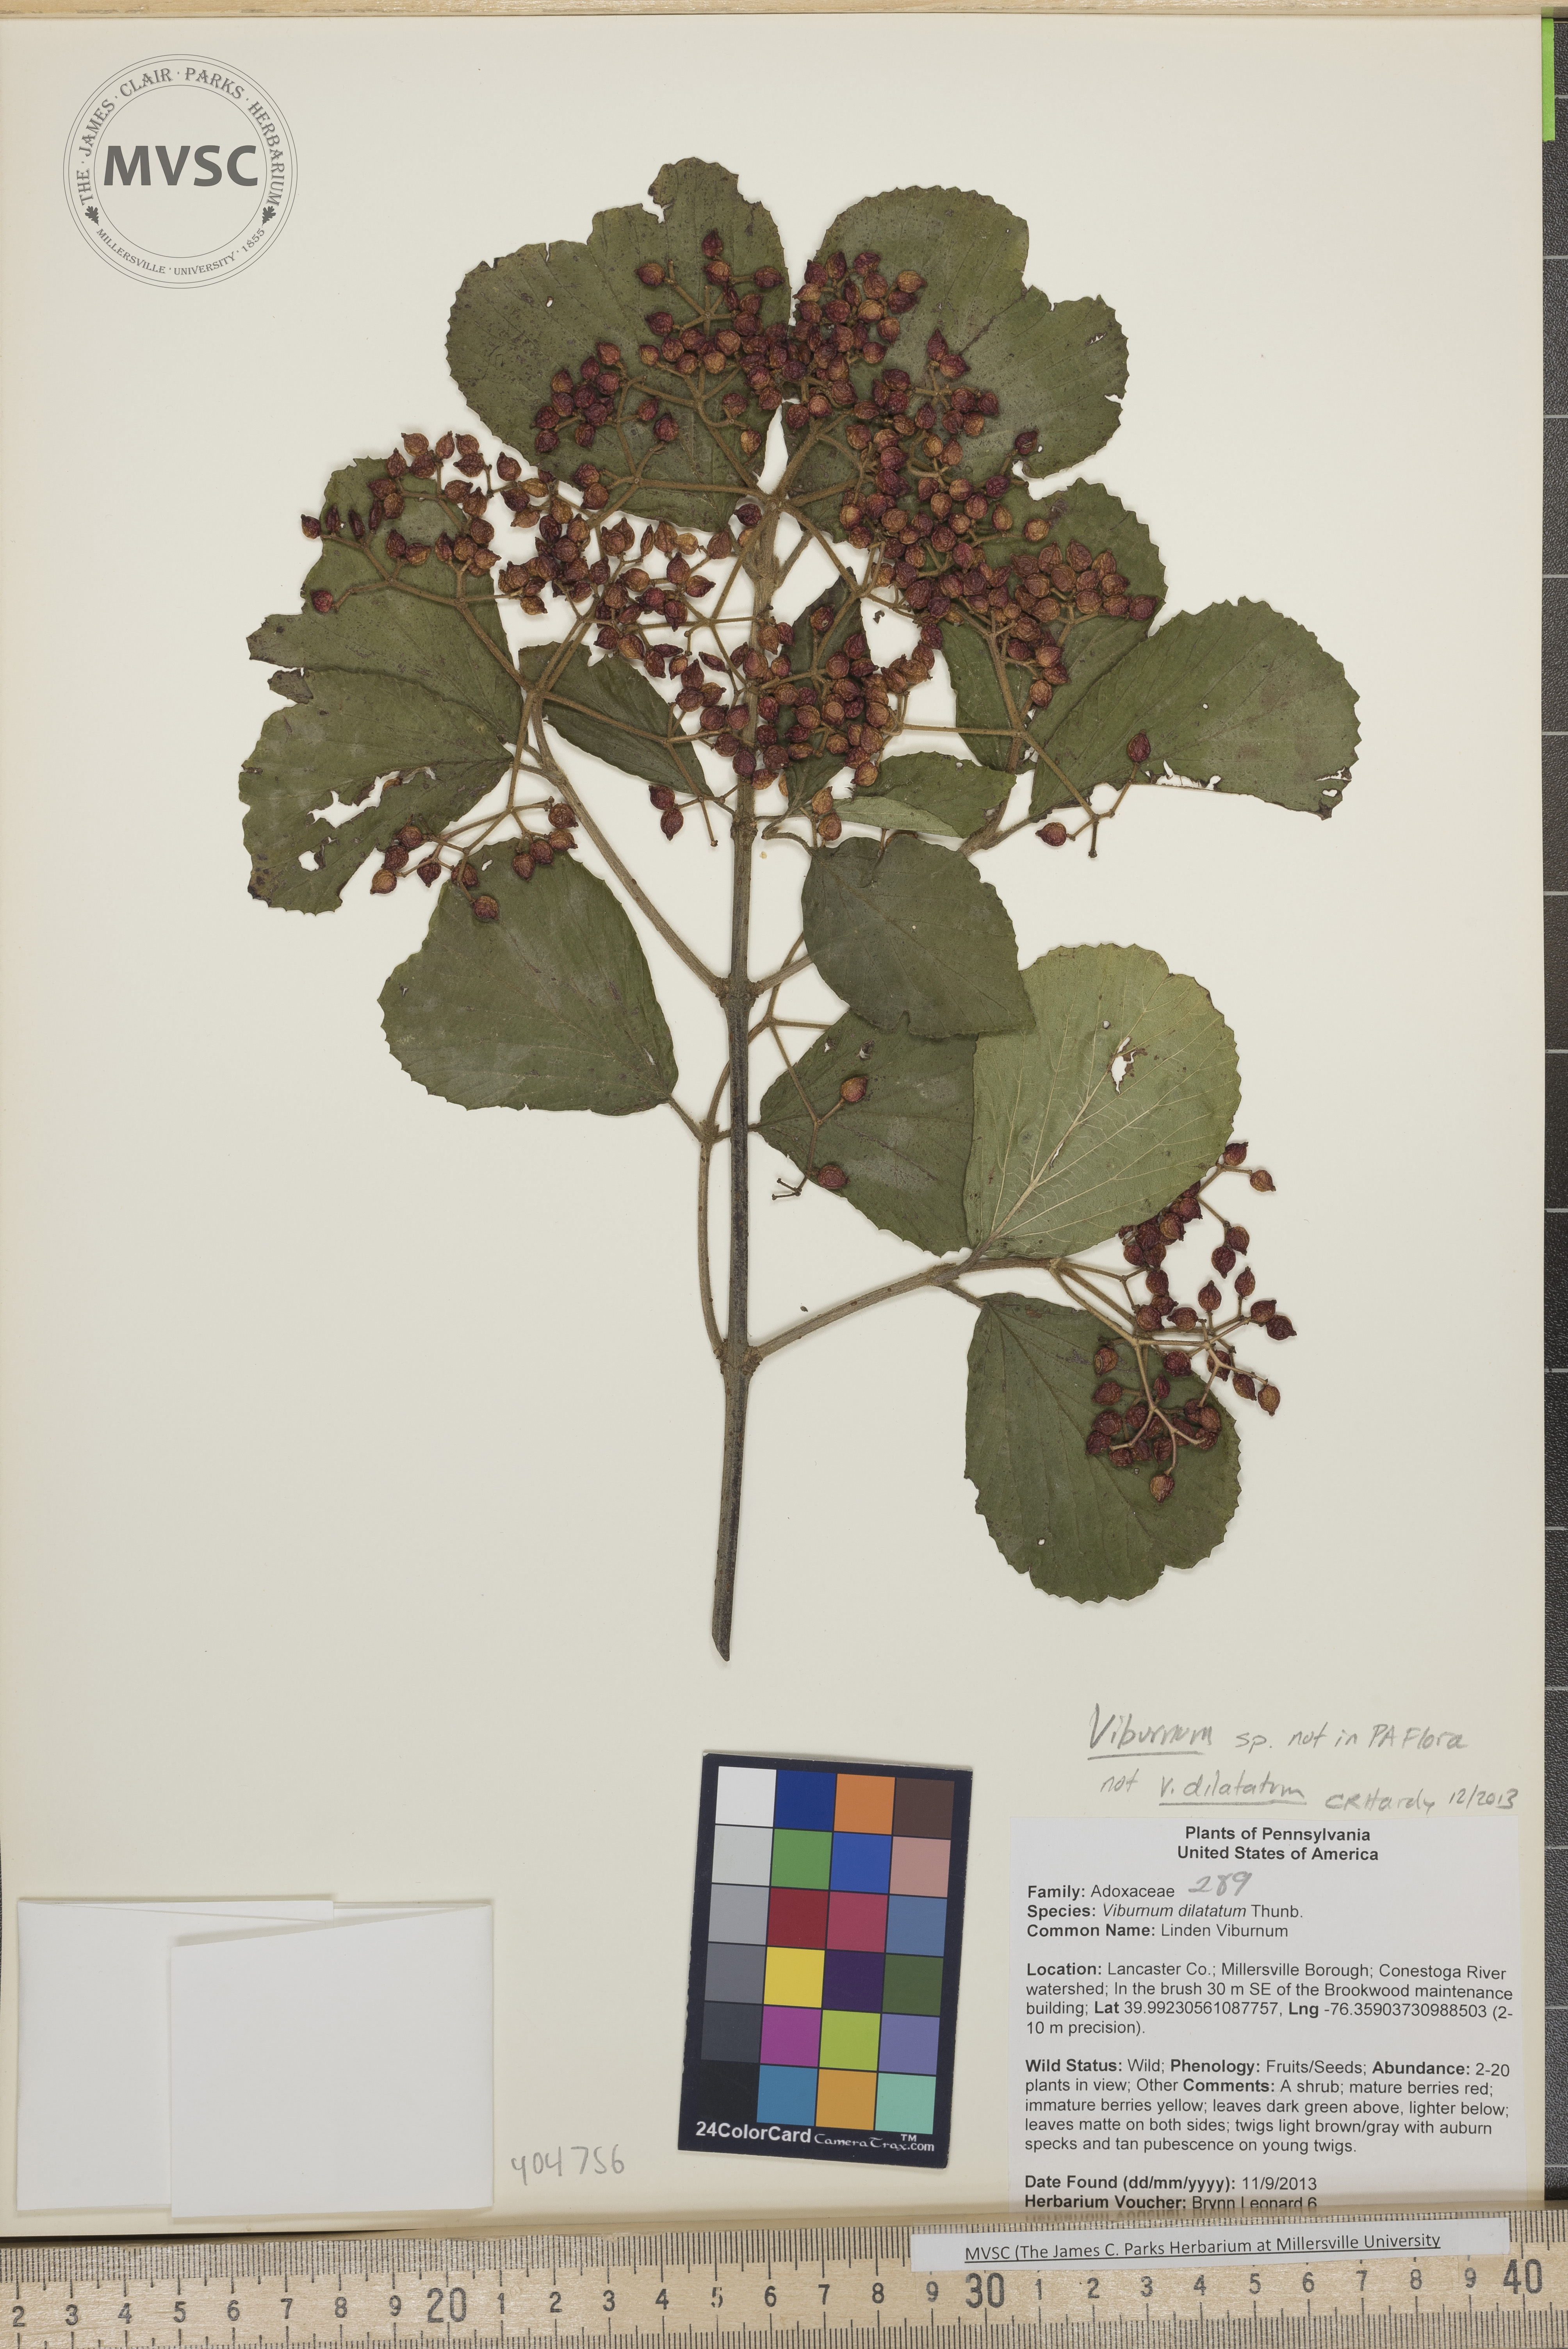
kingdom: Plantae
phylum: Tracheophyta
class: Magnoliopsida
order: Dipsacales
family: Viburnaceae
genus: Viburnum
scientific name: Viburnum dilatatum
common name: Viburnum
